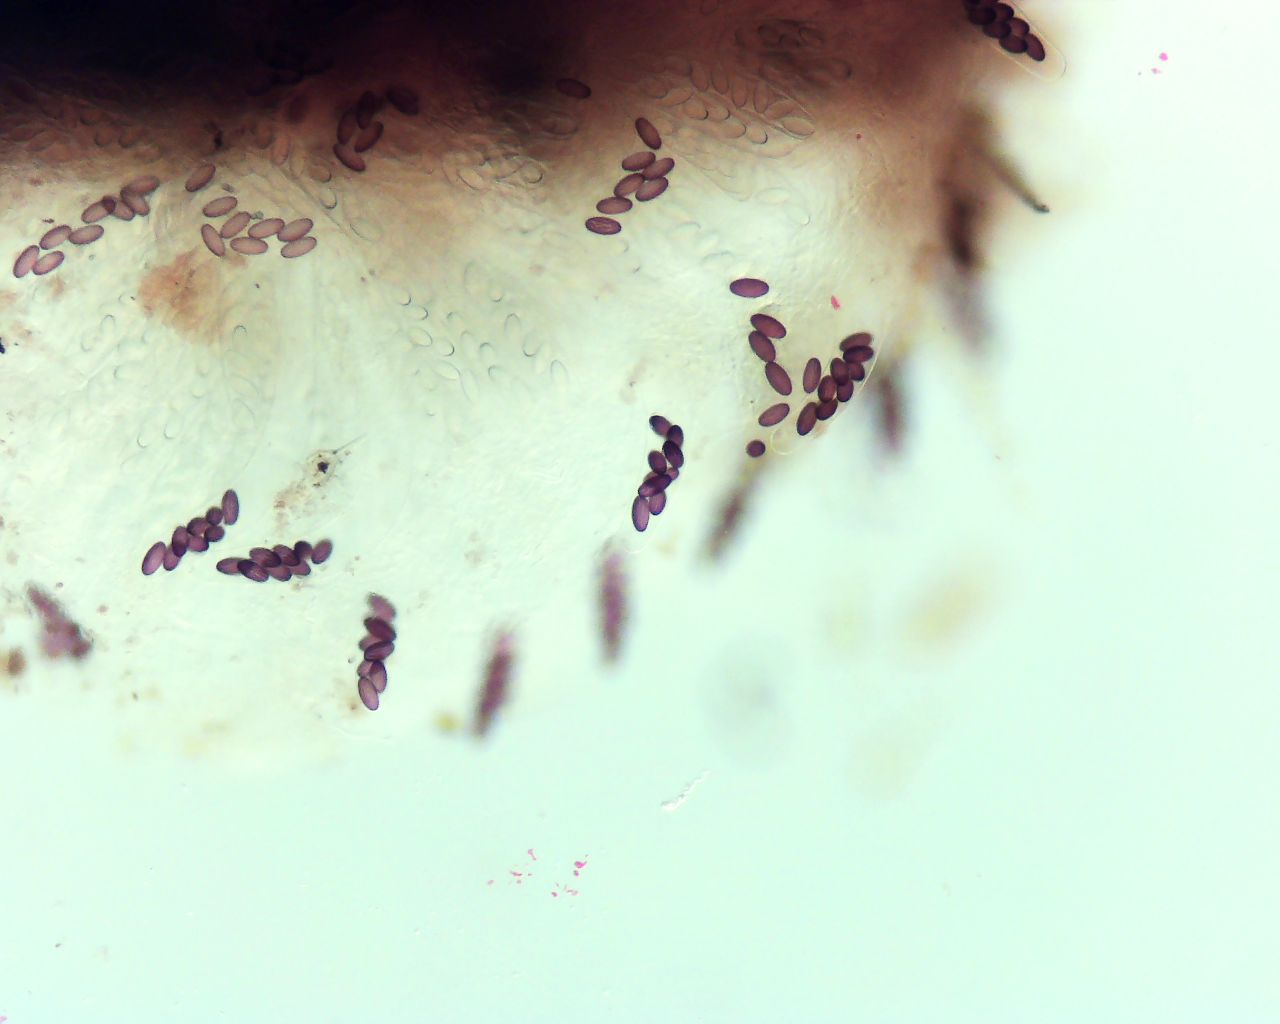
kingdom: Fungi
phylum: Ascomycota
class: Pezizomycetes
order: Pezizales
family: Ascobolaceae
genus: Ascobolus
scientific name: Ascobolus
